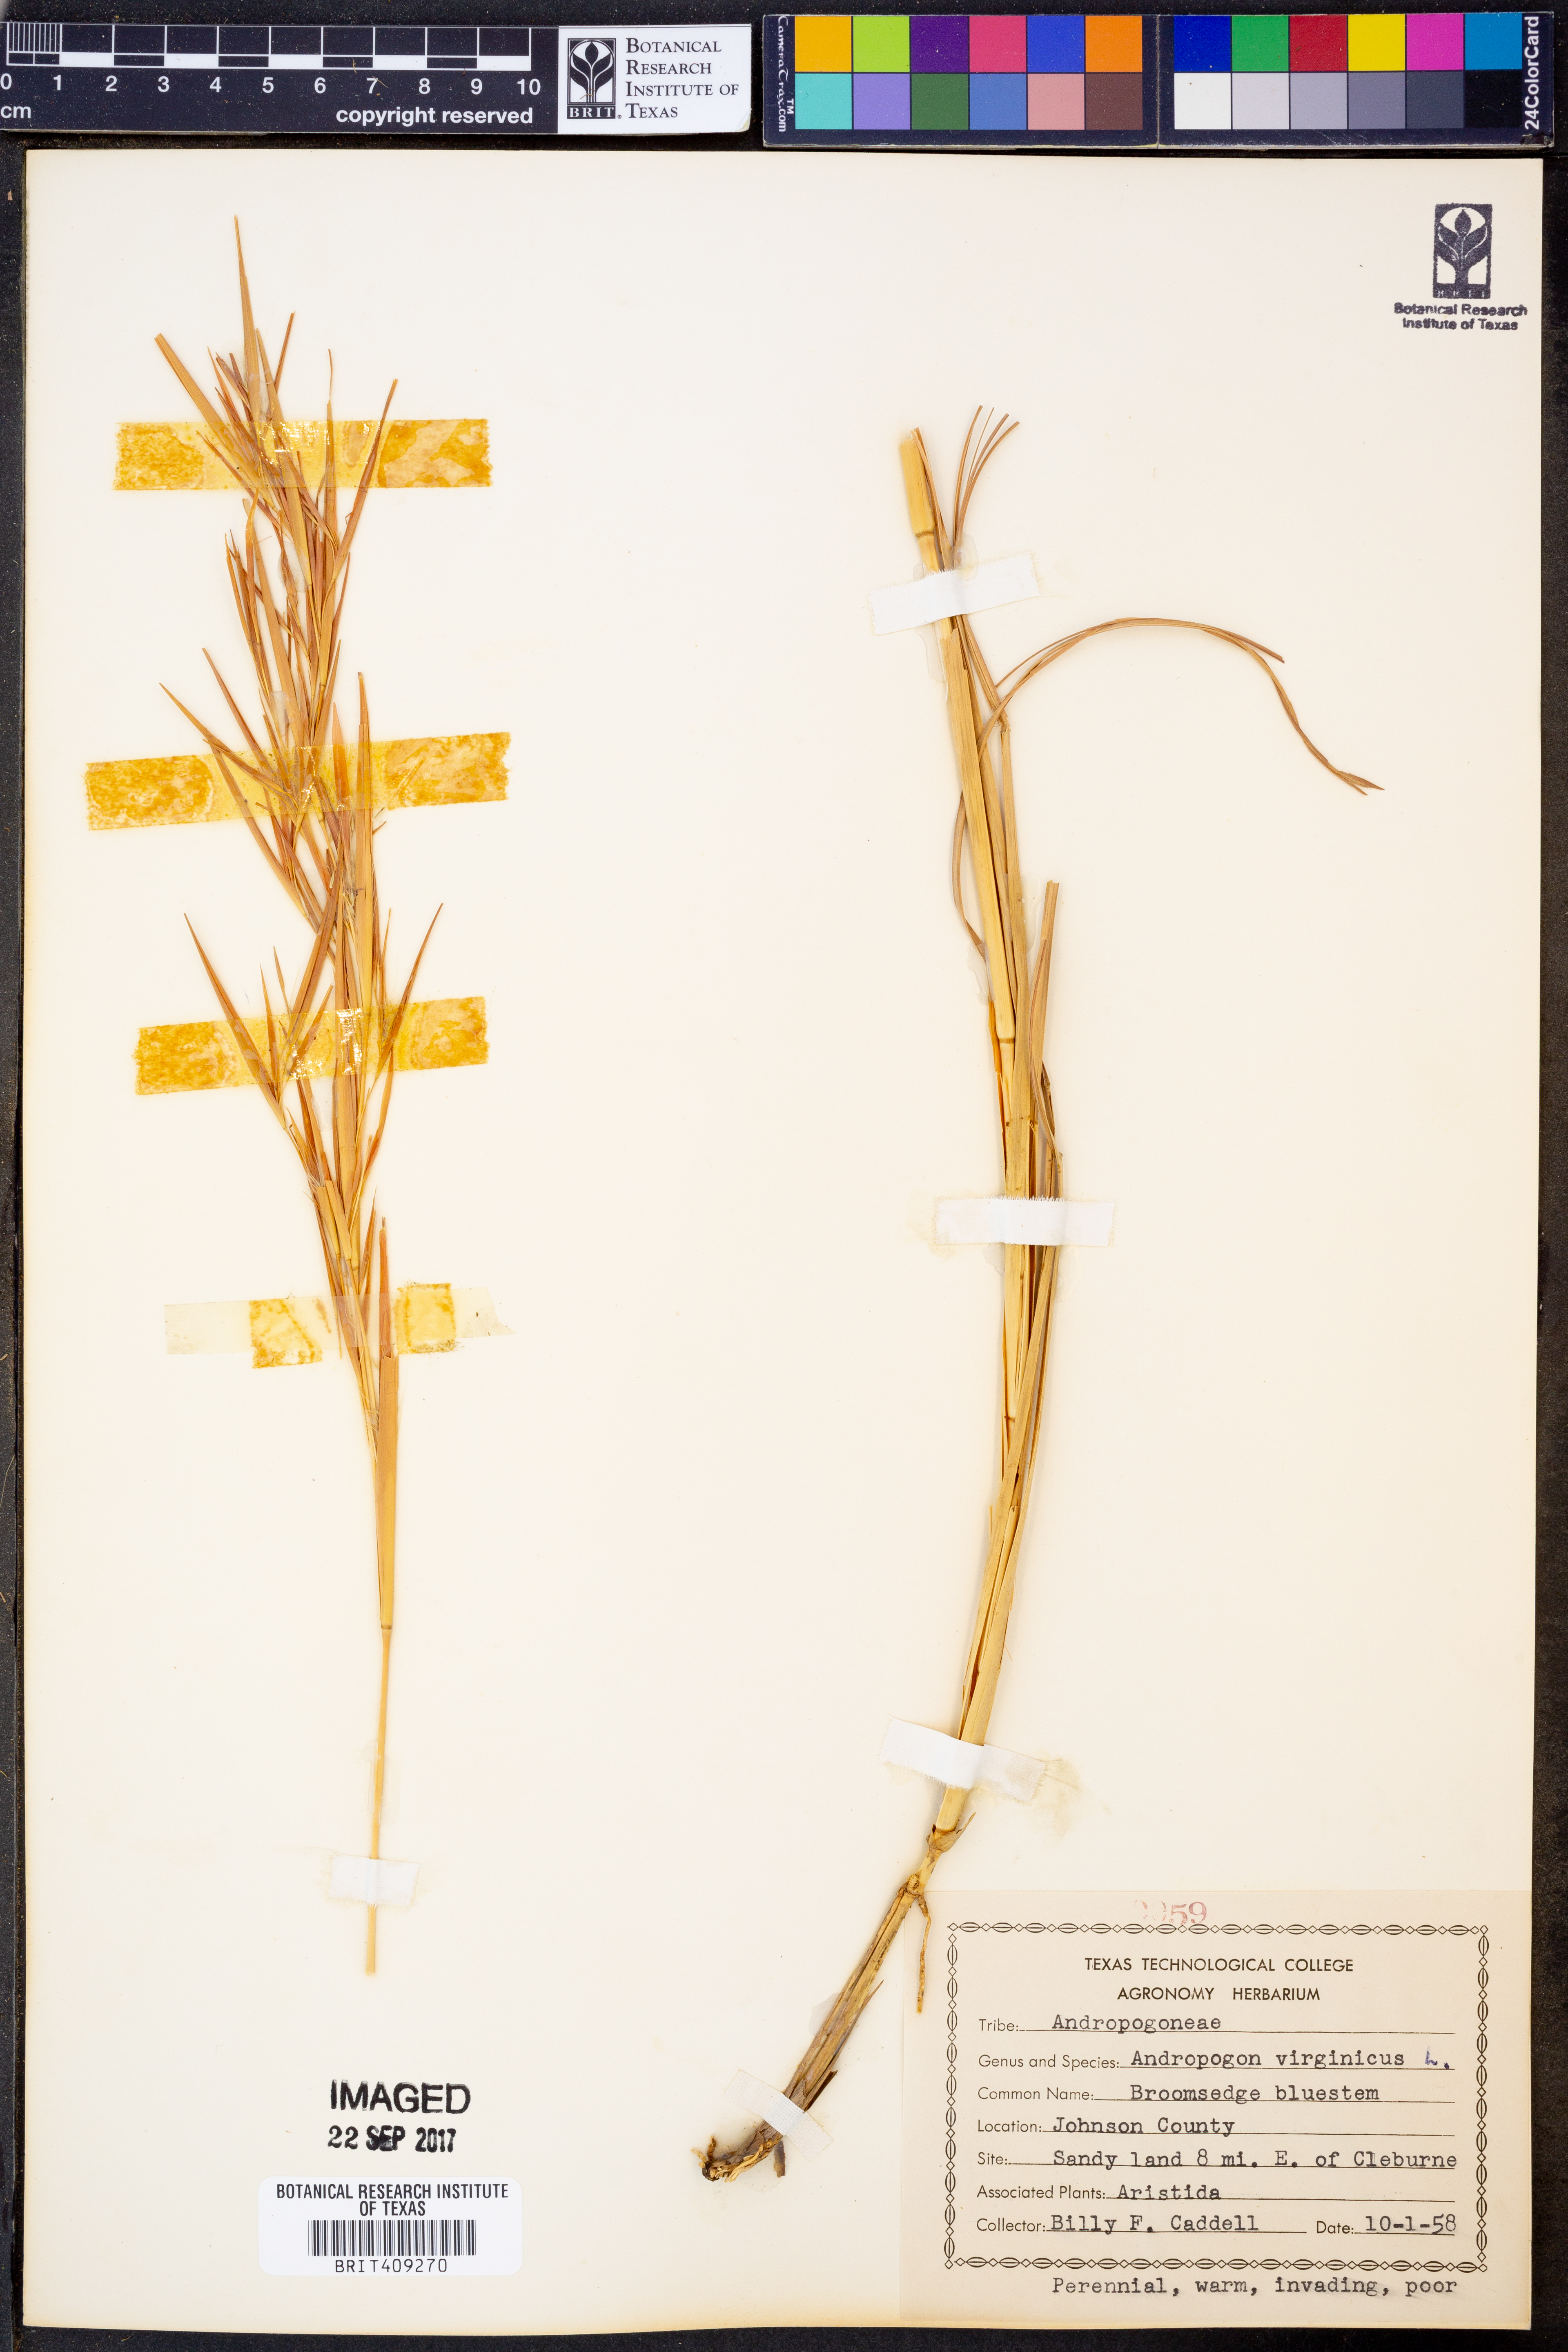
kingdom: Plantae
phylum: Tracheophyta
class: Liliopsida
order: Poales
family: Poaceae
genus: Andropogon
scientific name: Andropogon virginicus
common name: Broomsedge bluestem
